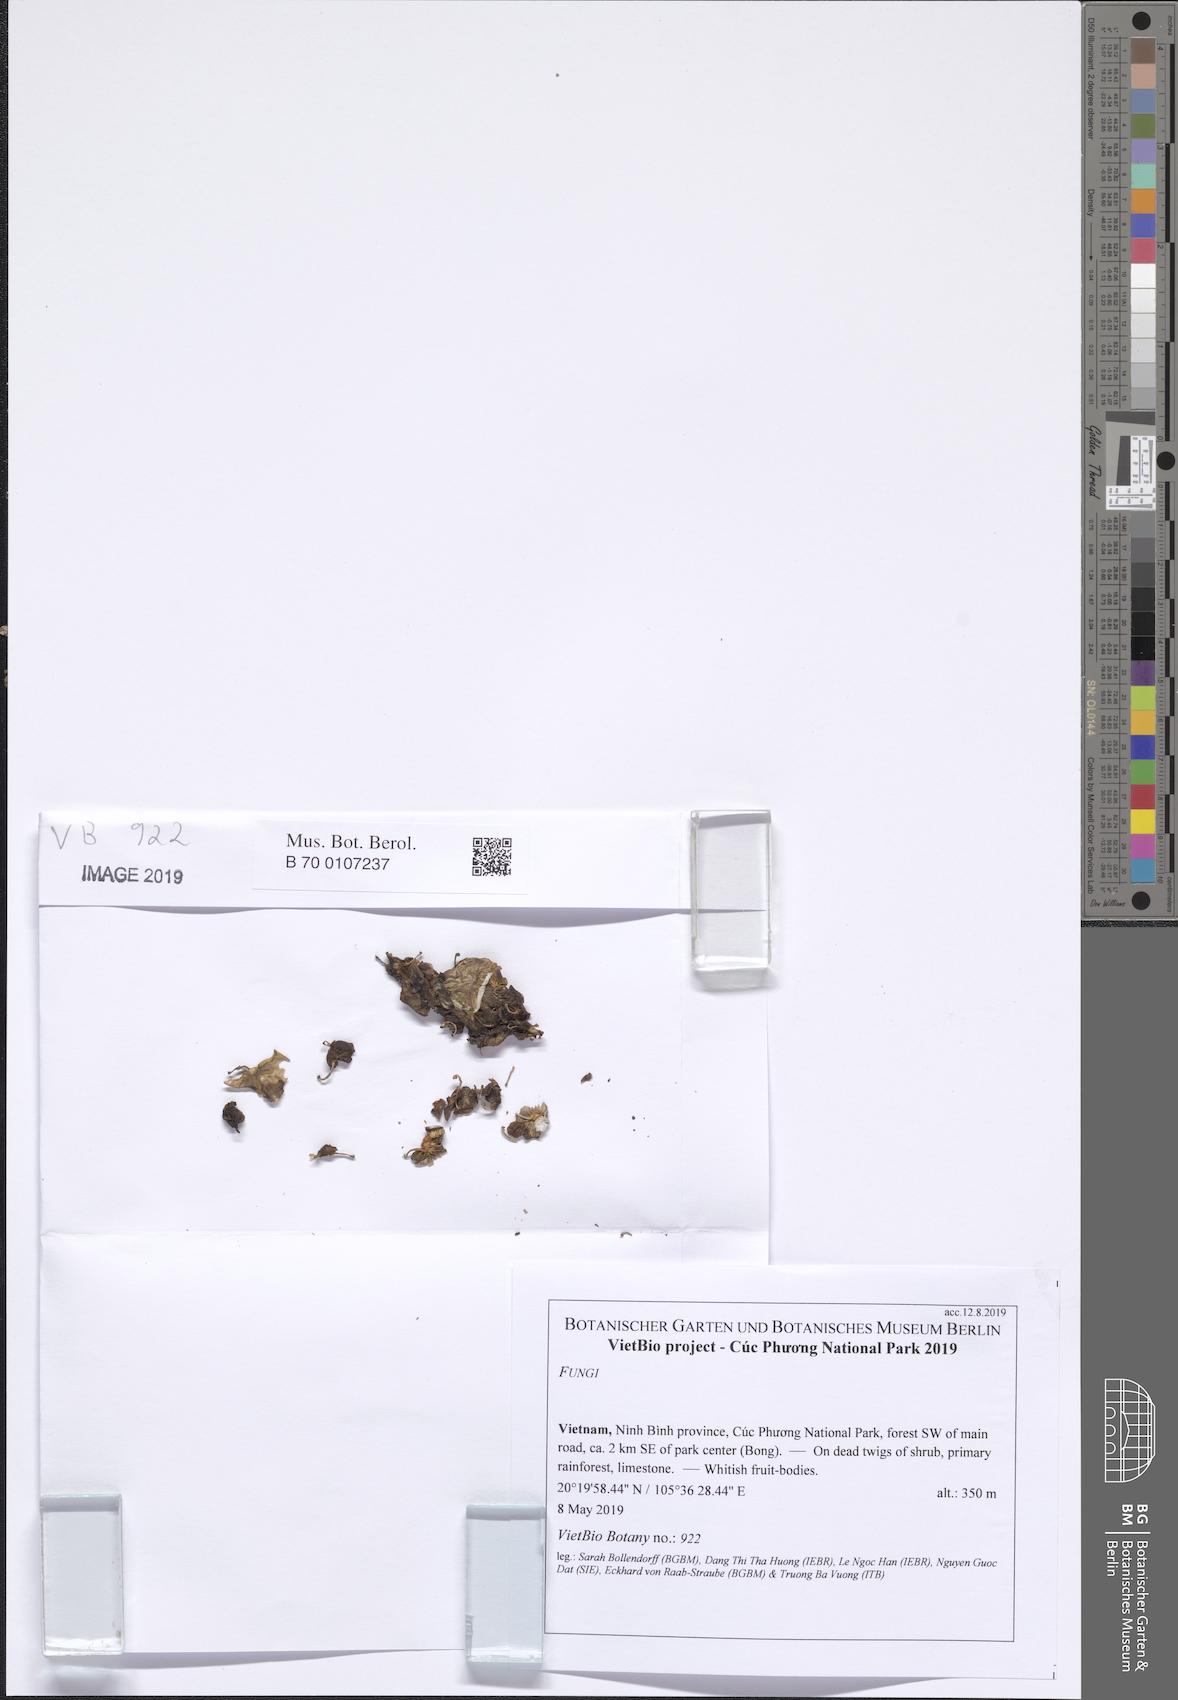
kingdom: Fungi
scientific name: Fungi
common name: Fungi
